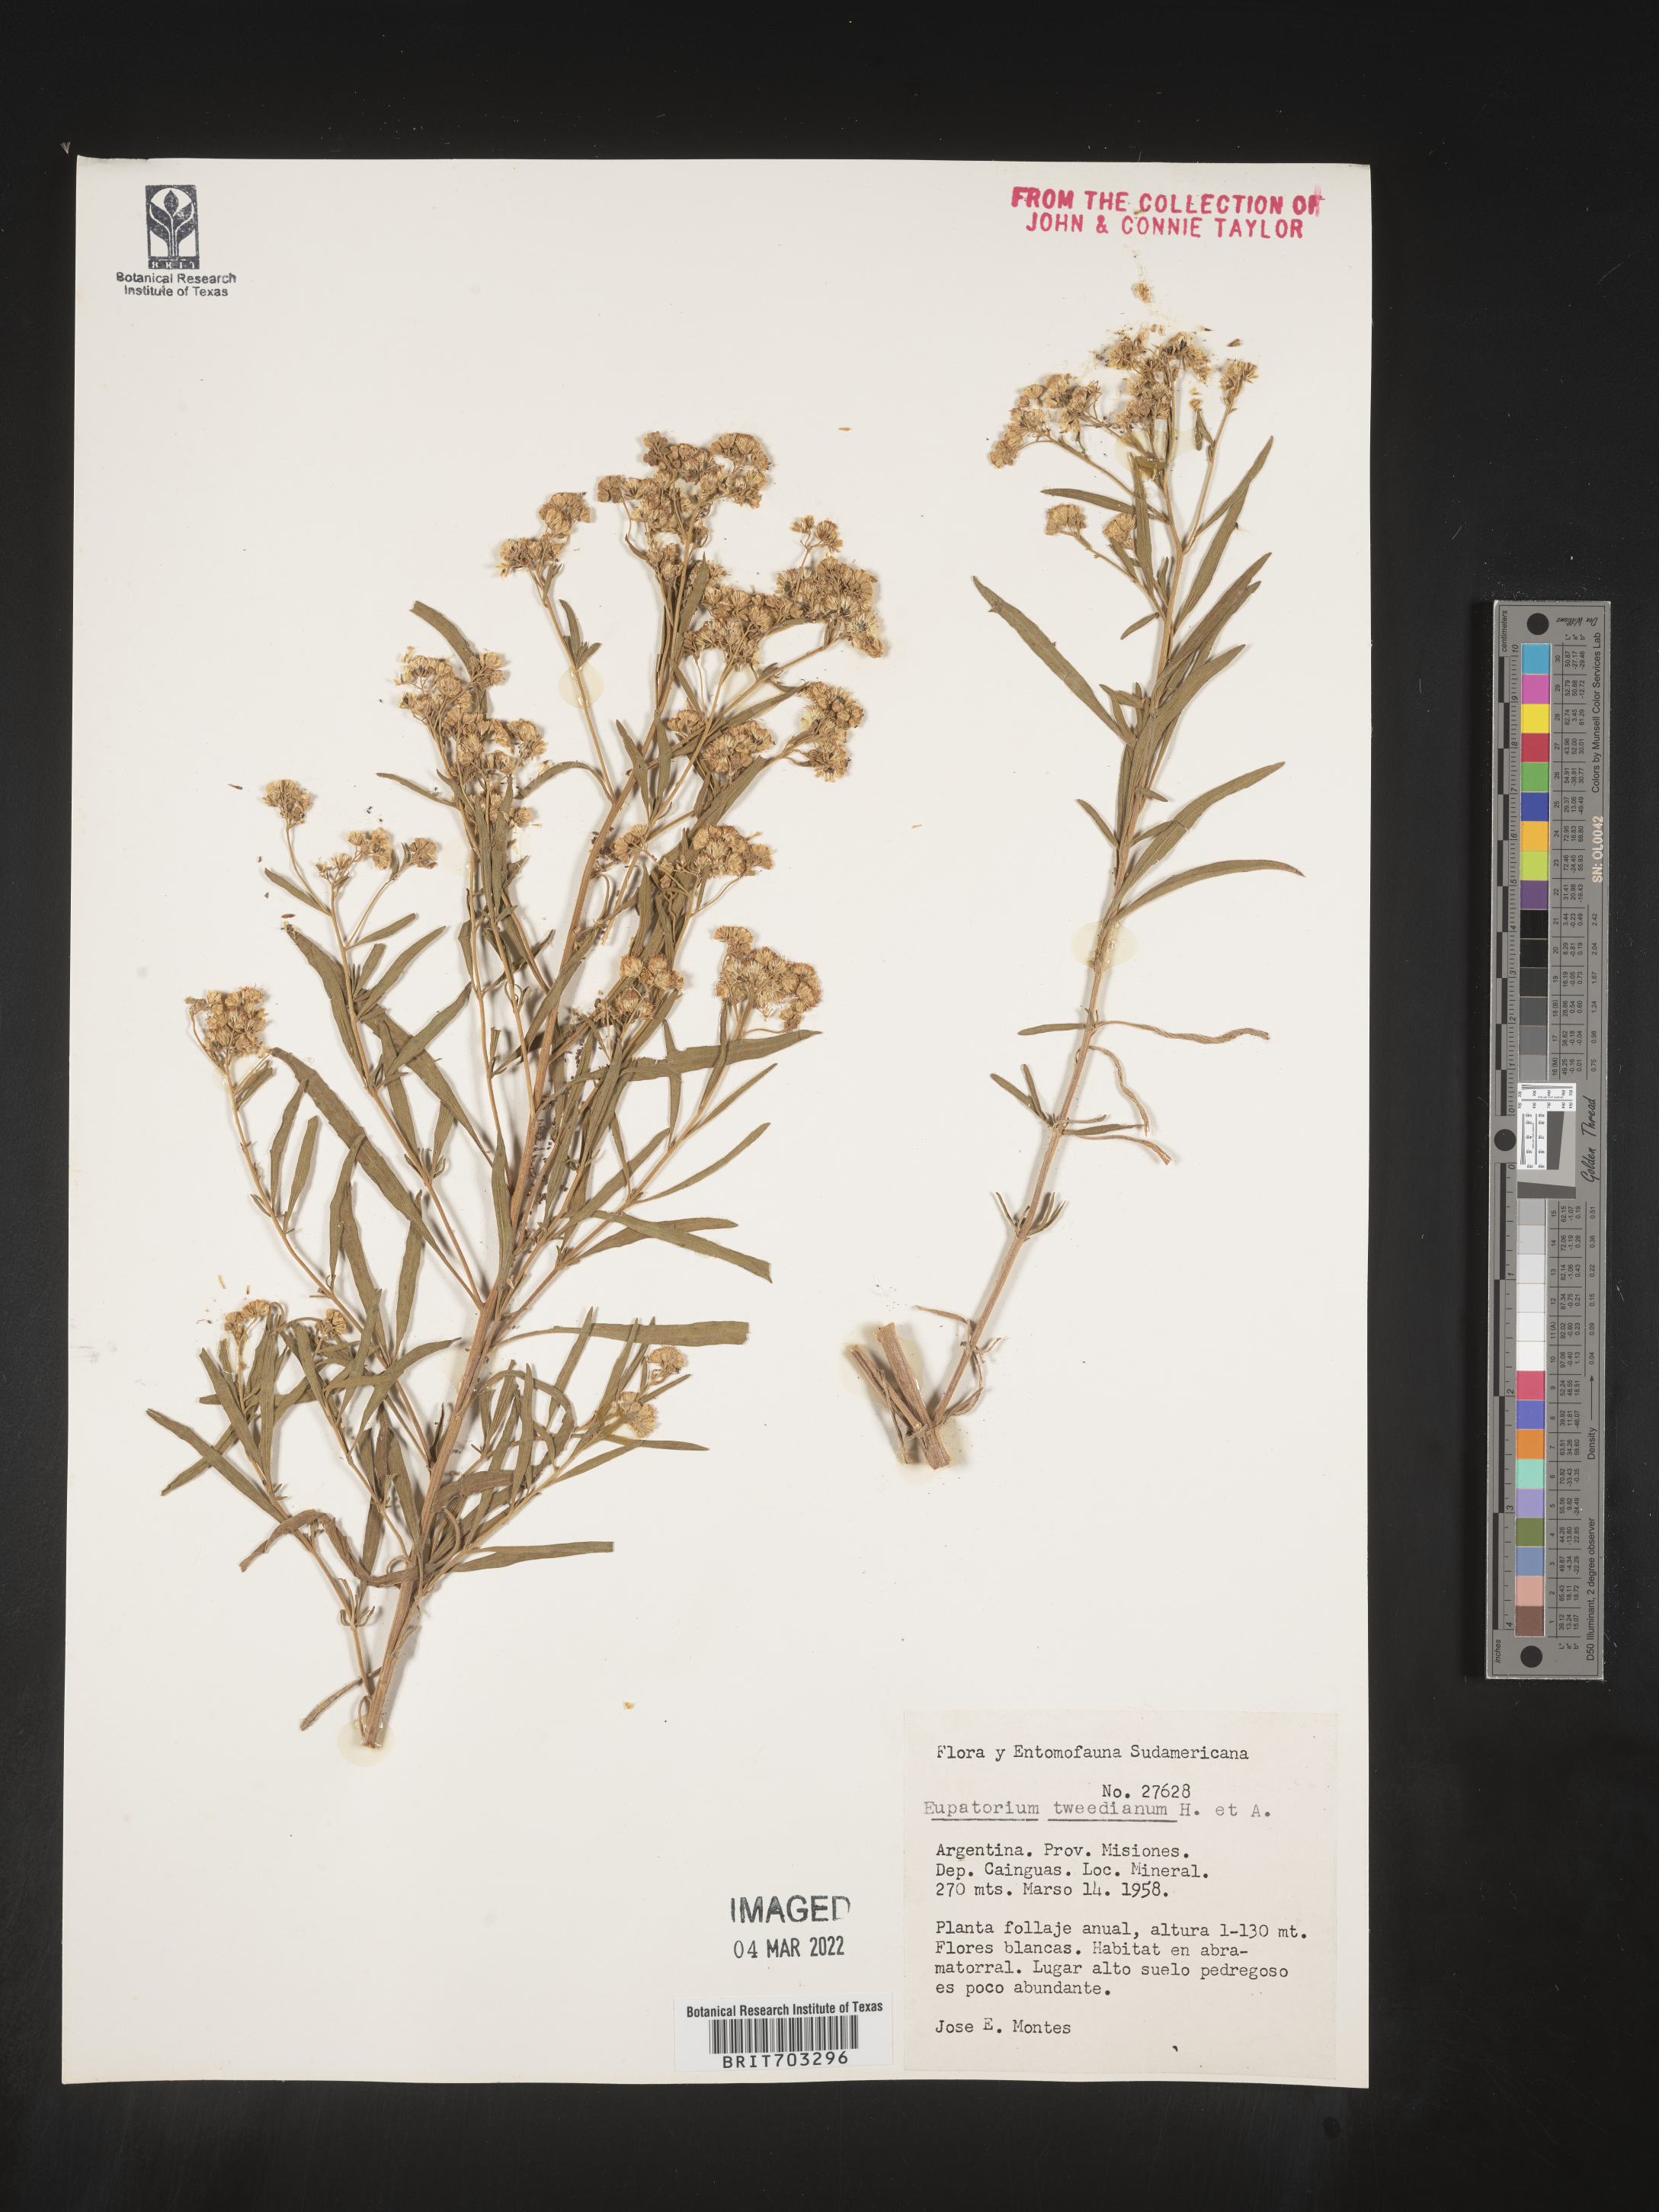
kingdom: Plantae
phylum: Tracheophyta
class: Magnoliopsida
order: Asterales
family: Asteraceae
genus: Eupatorium
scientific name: Eupatorium
